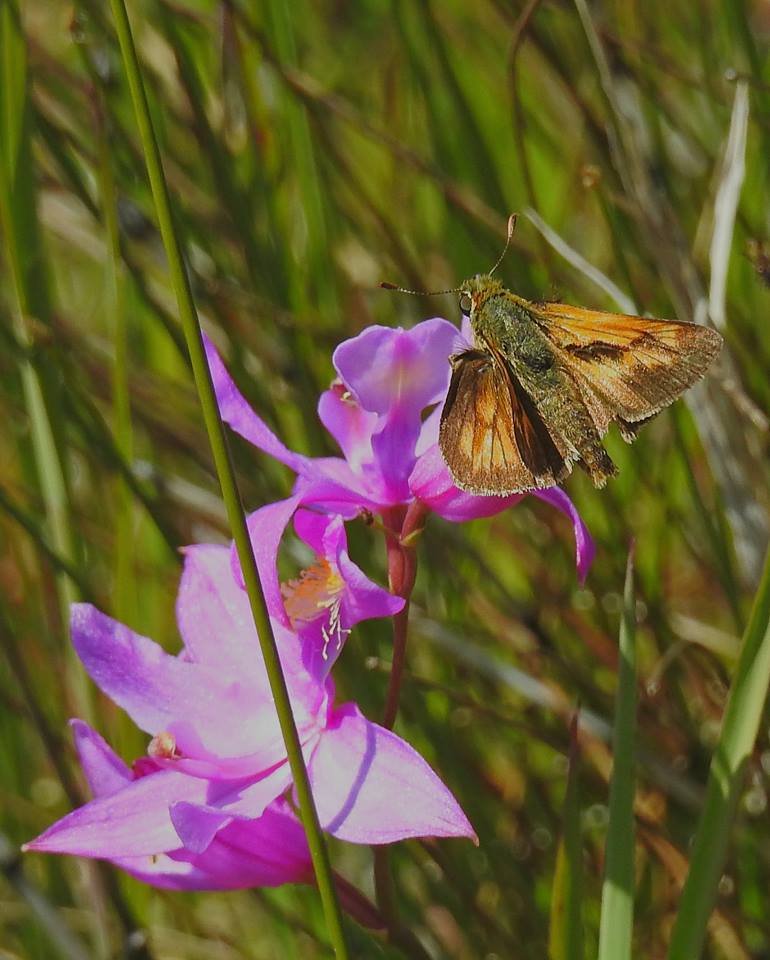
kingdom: Animalia
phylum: Arthropoda
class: Insecta
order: Lepidoptera
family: Hesperiidae
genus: Polites
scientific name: Polites
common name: Long Dash Skipper
